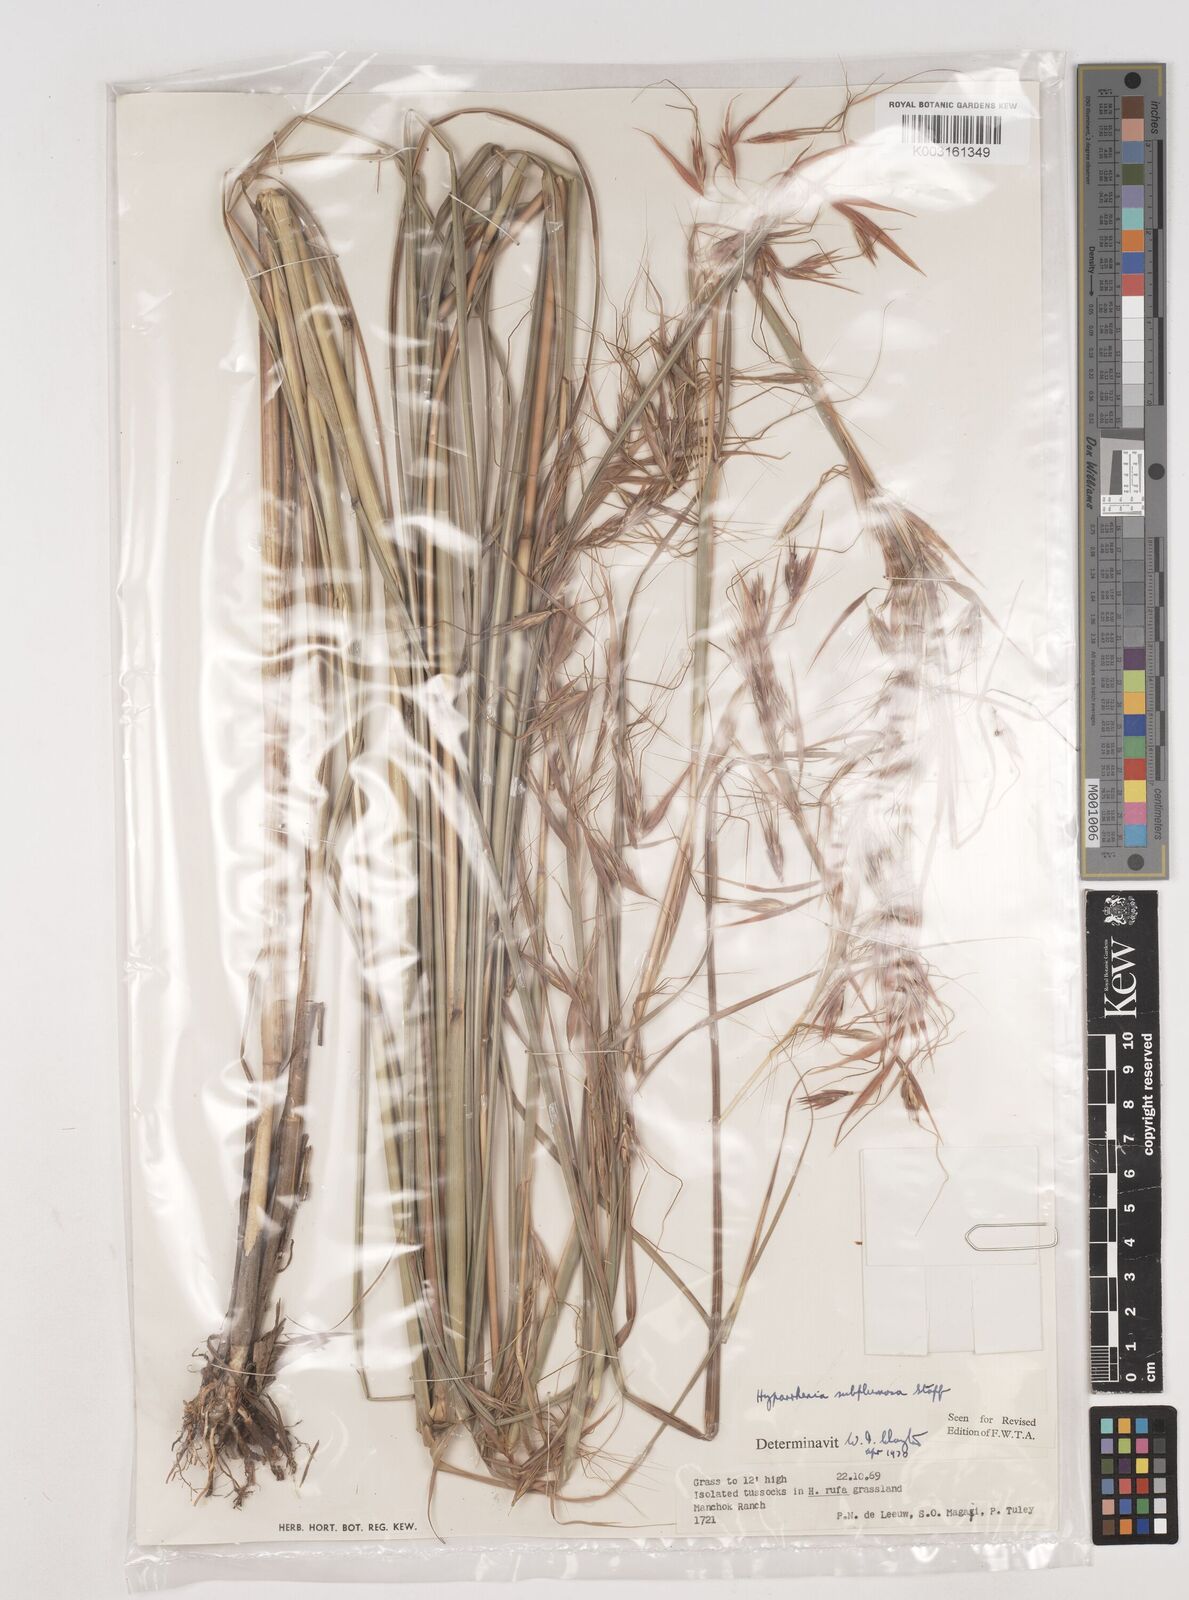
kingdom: Plantae
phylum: Tracheophyta
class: Liliopsida
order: Poales
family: Poaceae
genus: Hyparrhenia
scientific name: Hyparrhenia subplumosa
